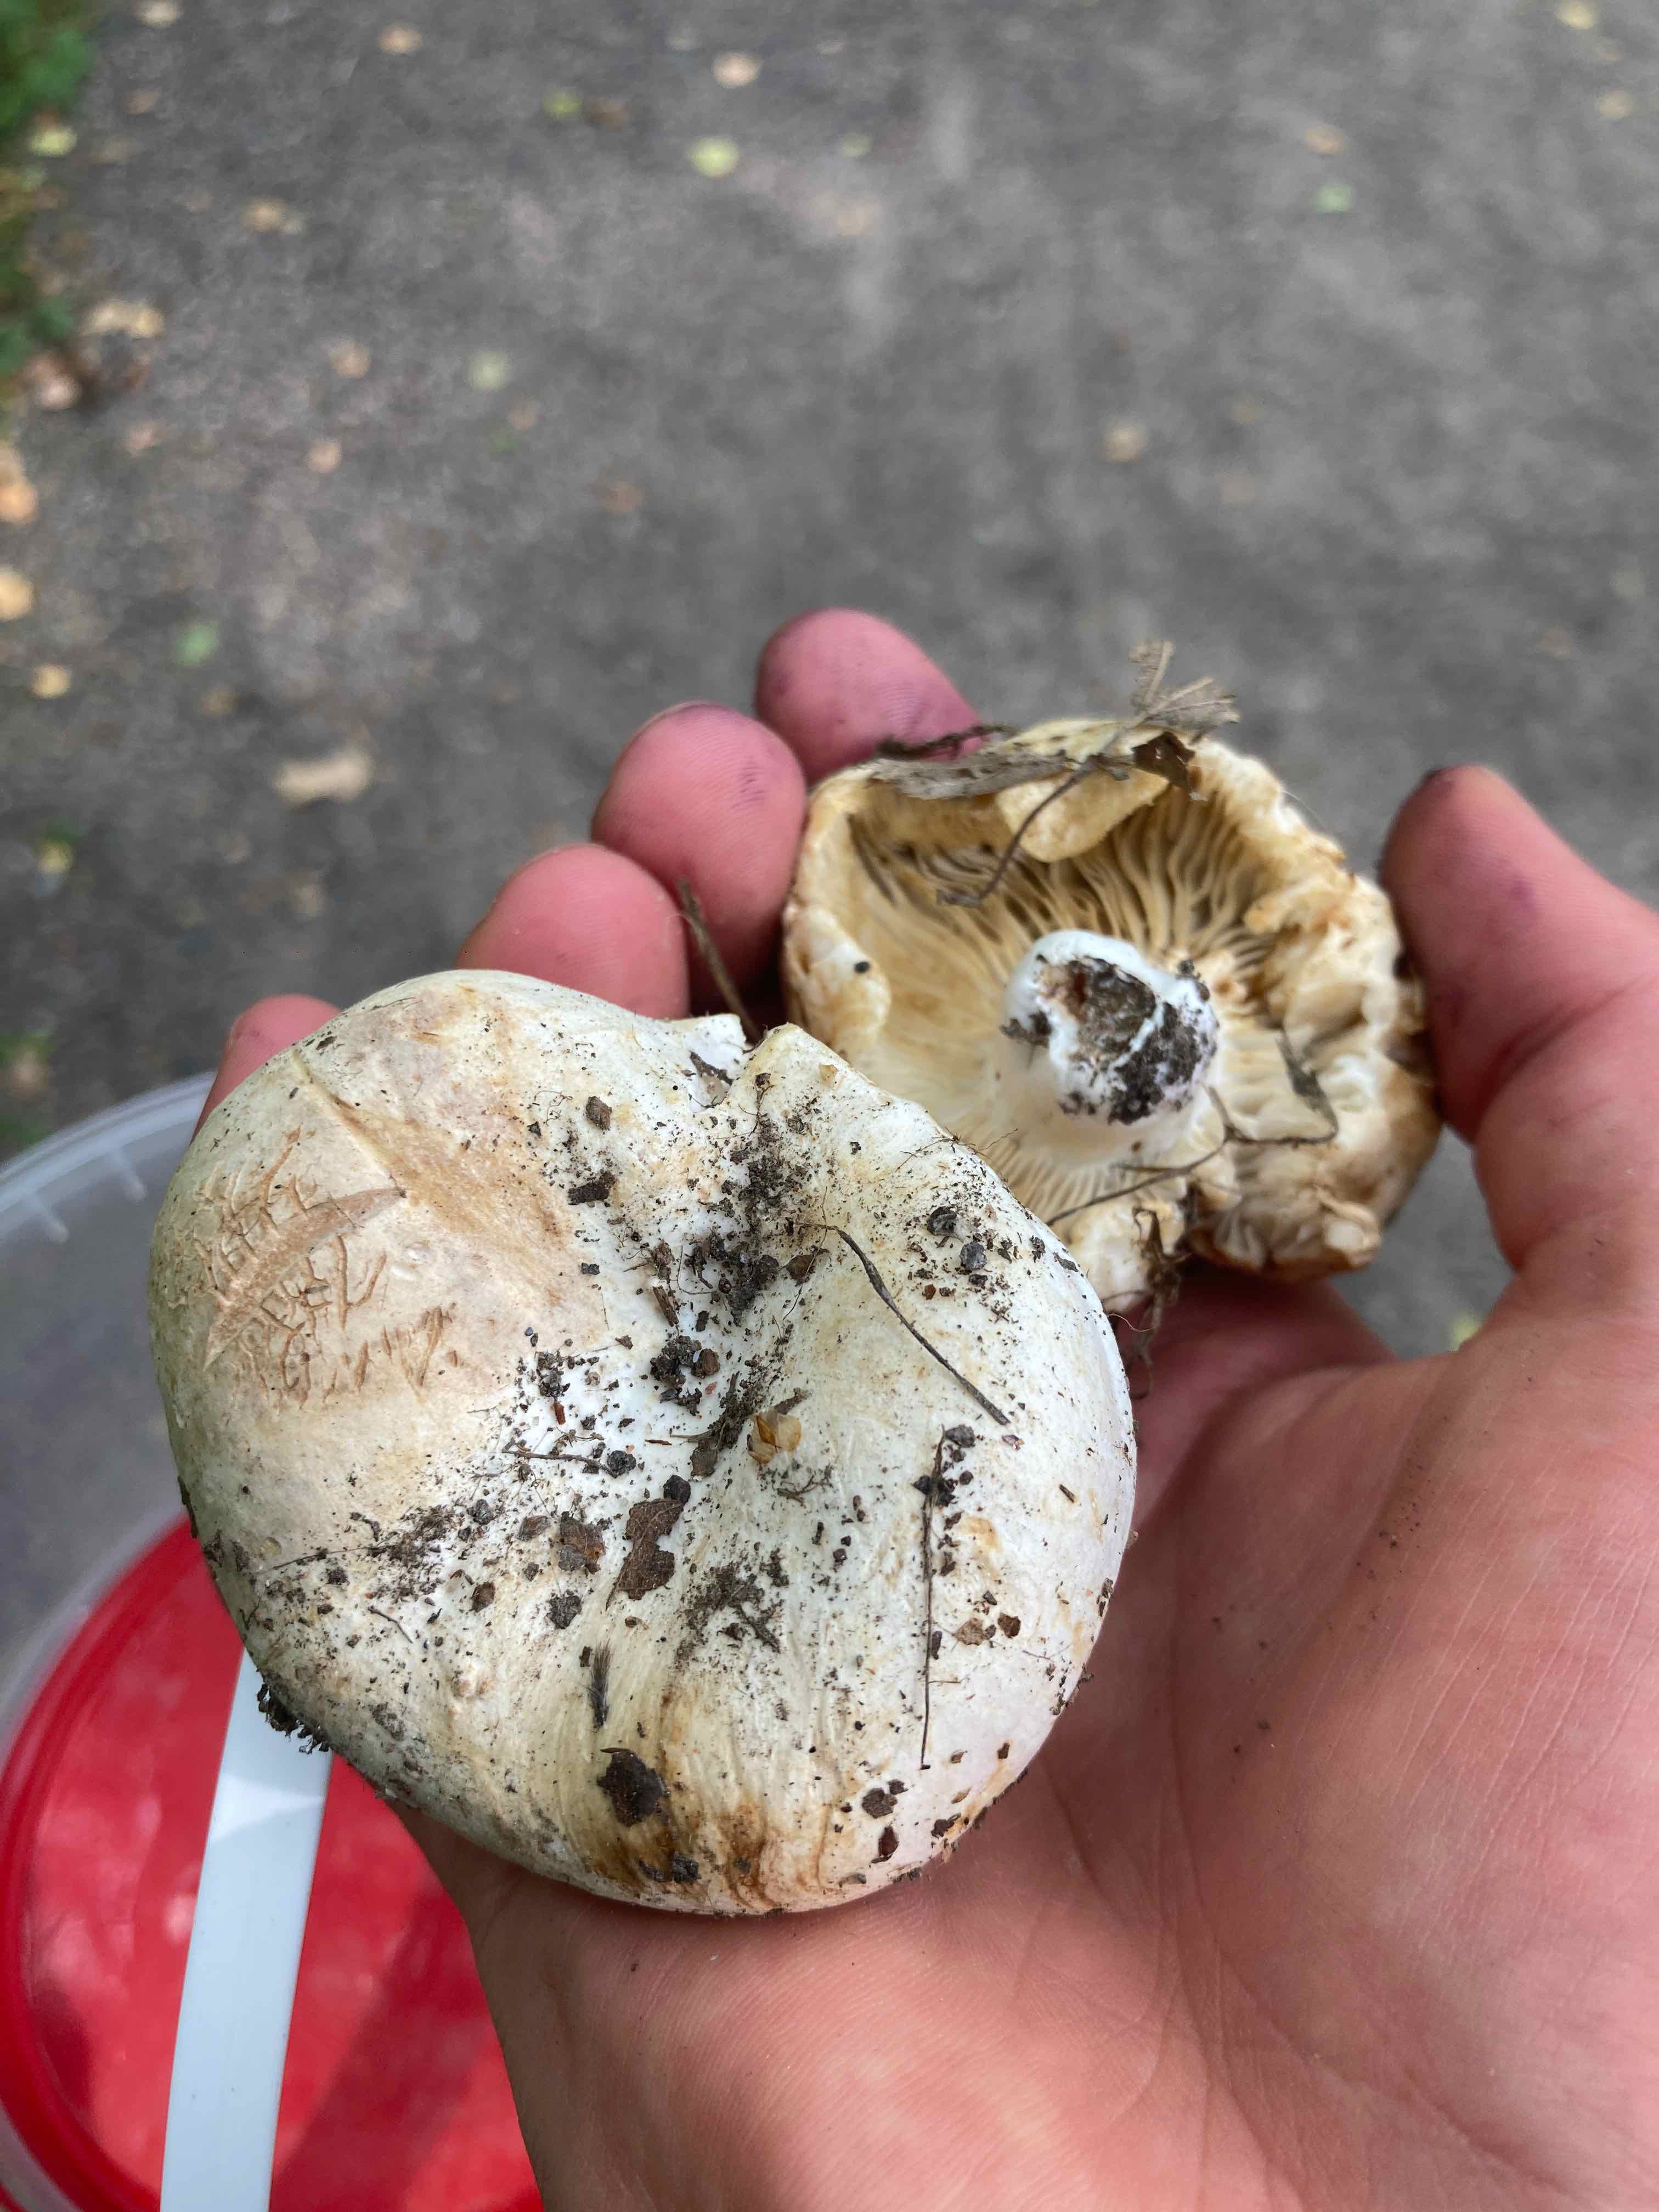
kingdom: Fungi
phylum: Basidiomycota
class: Agaricomycetes
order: Russulales
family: Russulaceae
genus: Russula
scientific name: Russula
